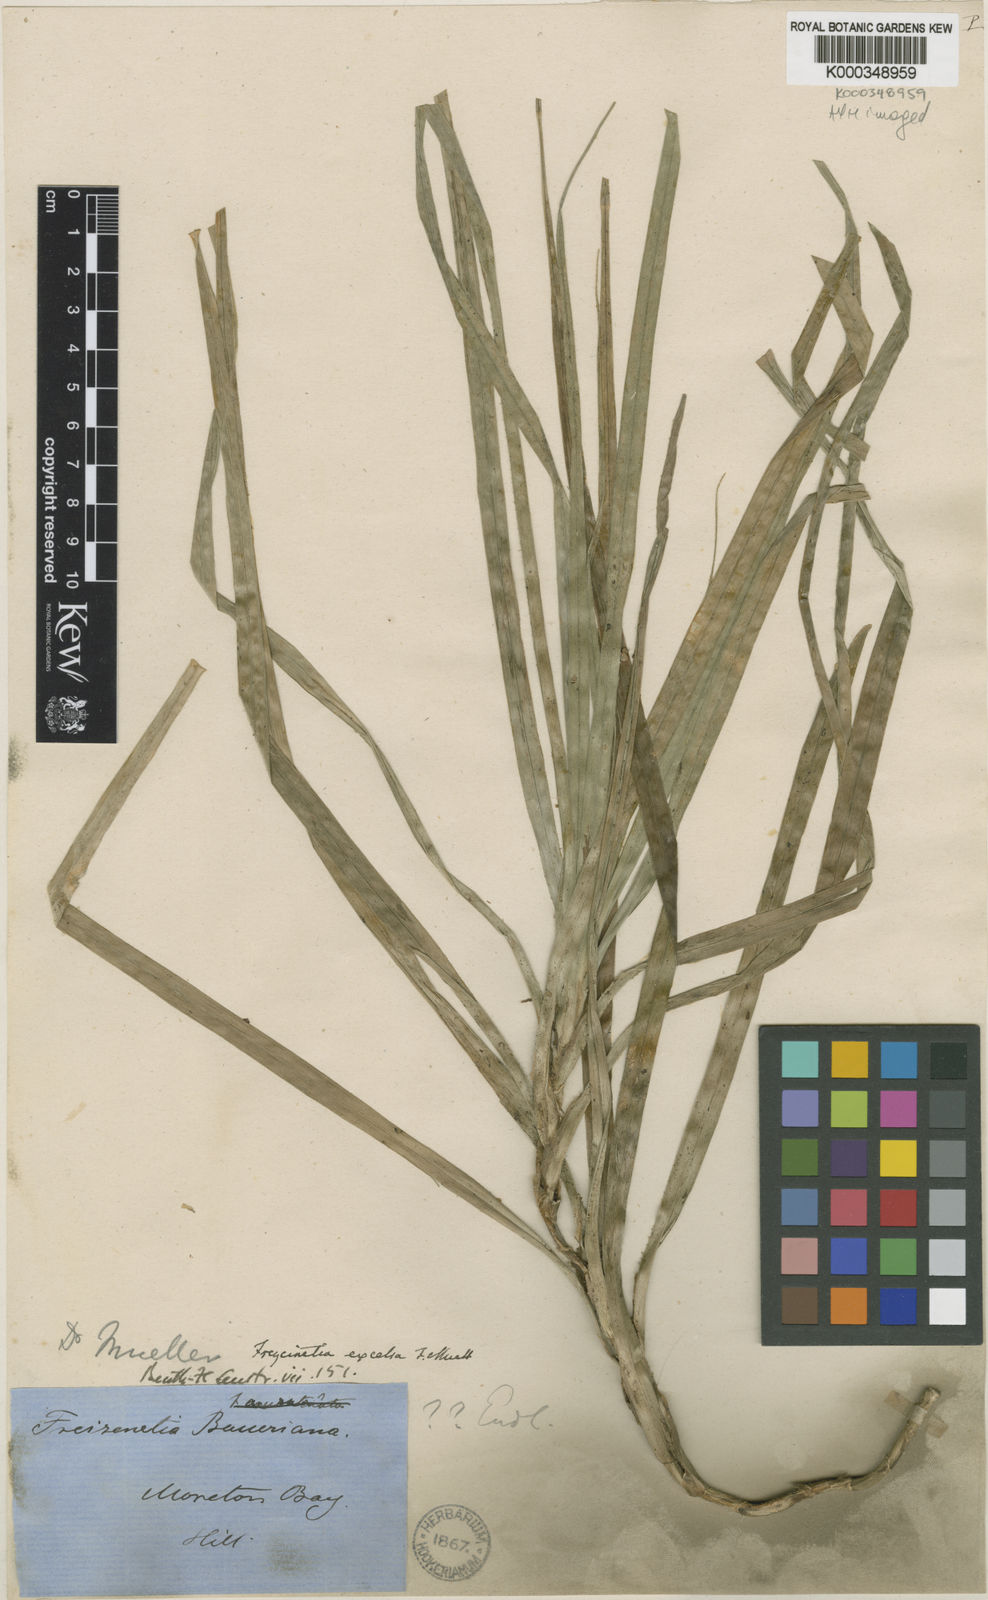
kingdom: Plantae
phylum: Tracheophyta
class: Liliopsida
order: Pandanales
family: Pandanaceae
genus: Freycinetia
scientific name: Freycinetia excelsa
